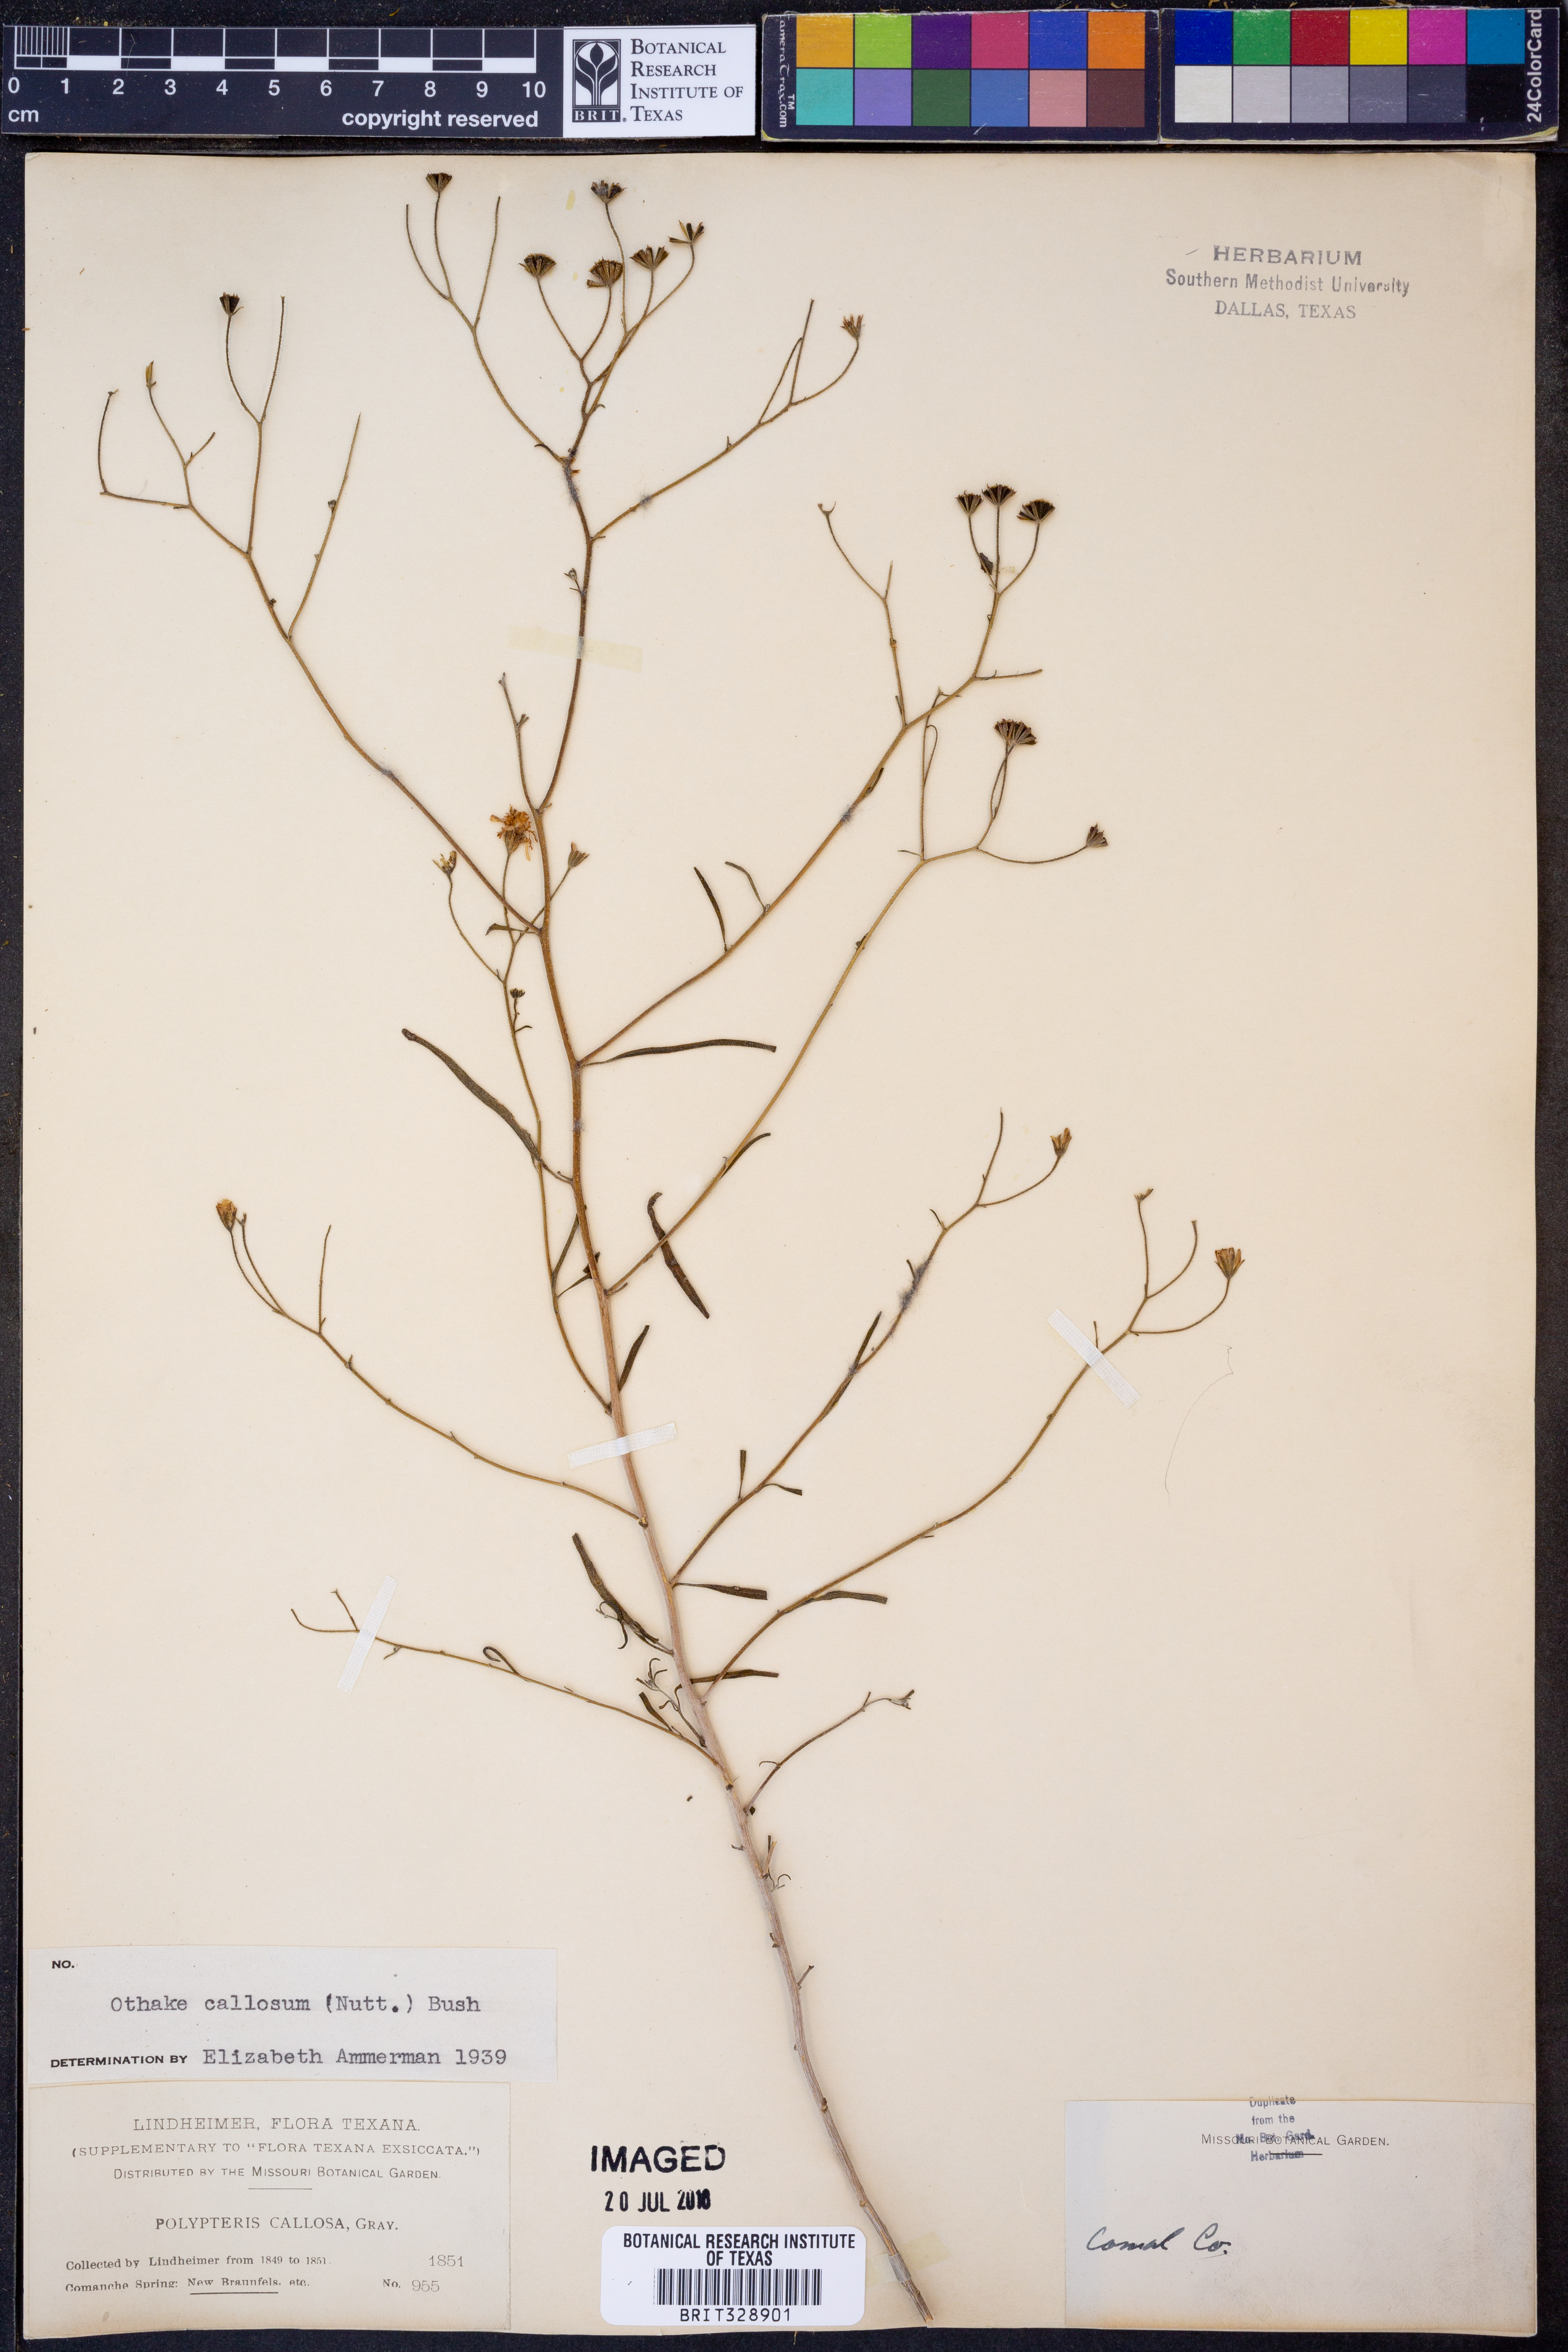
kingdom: Plantae
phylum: Tracheophyta
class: Magnoliopsida
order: Asterales
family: Asteraceae
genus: Palafoxia
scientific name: Palafoxia callosa
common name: Small palafox
